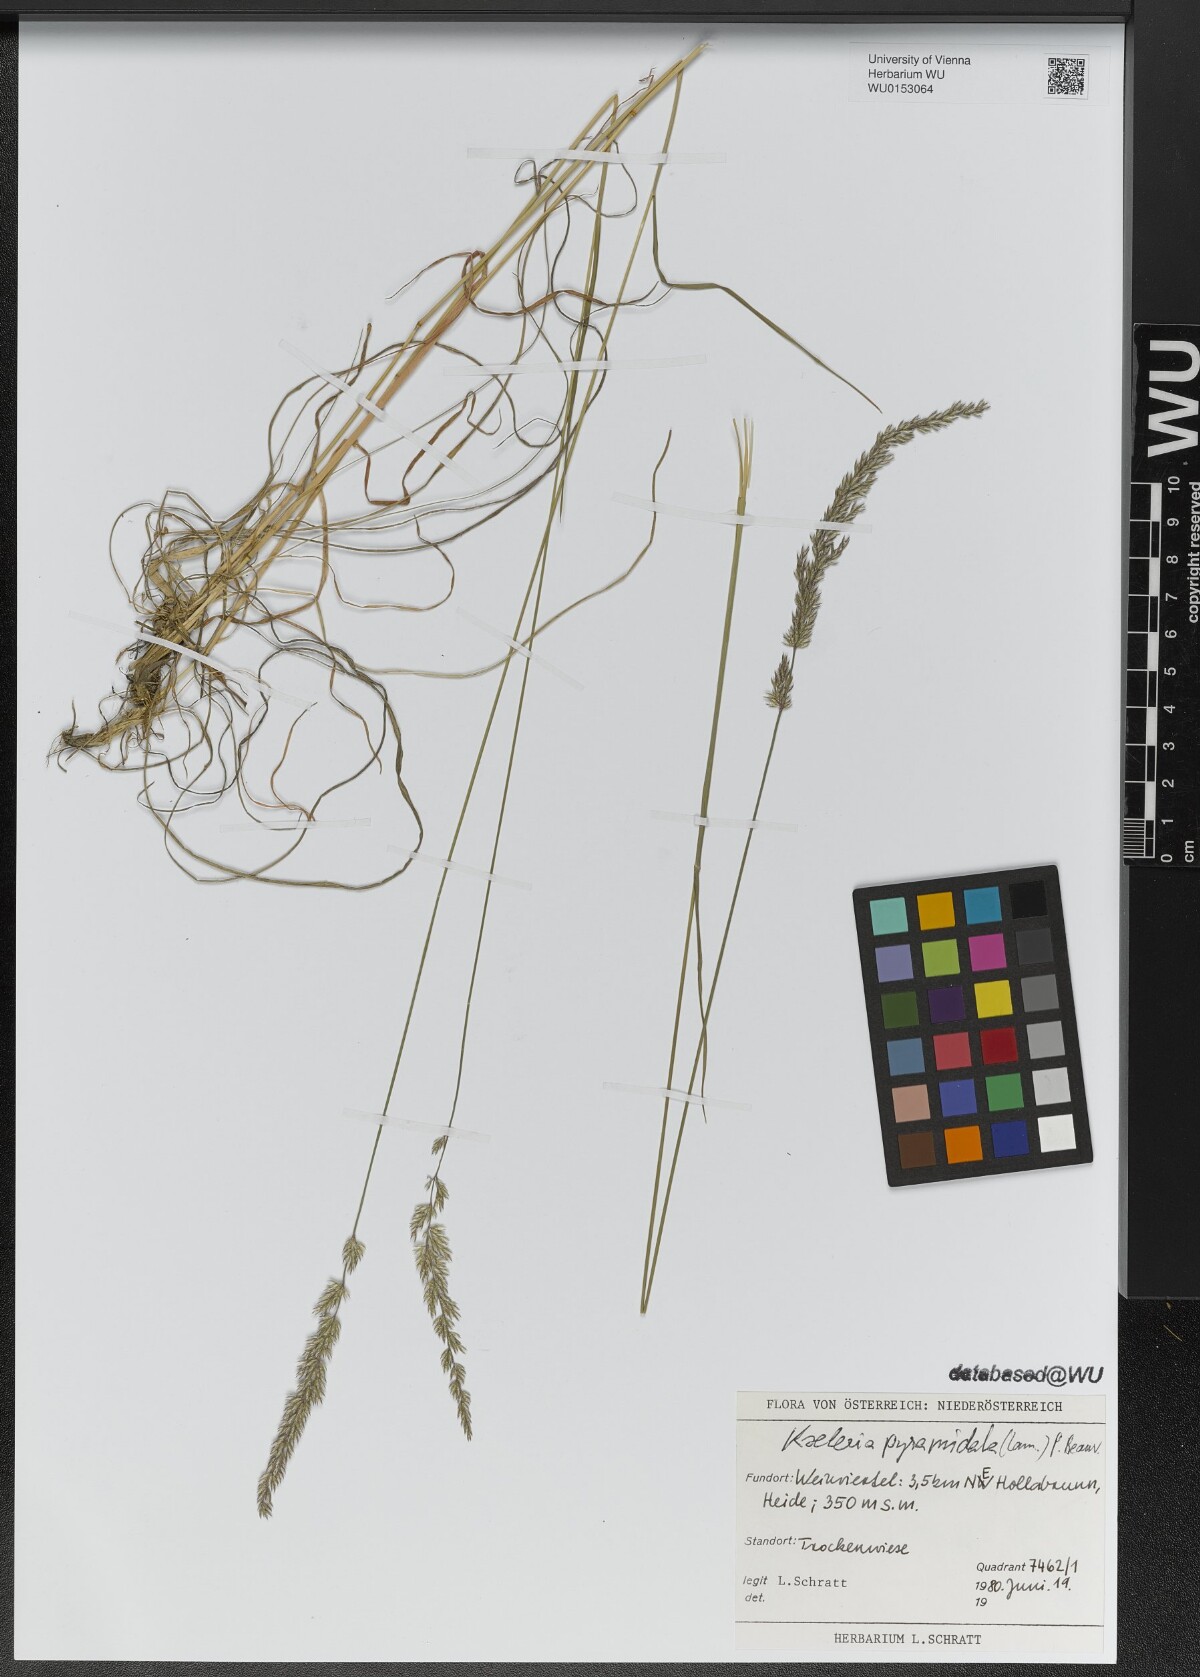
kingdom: Plantae
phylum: Tracheophyta
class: Liliopsida
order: Poales
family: Poaceae
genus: Koeleria
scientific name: Koeleria pyramidata
